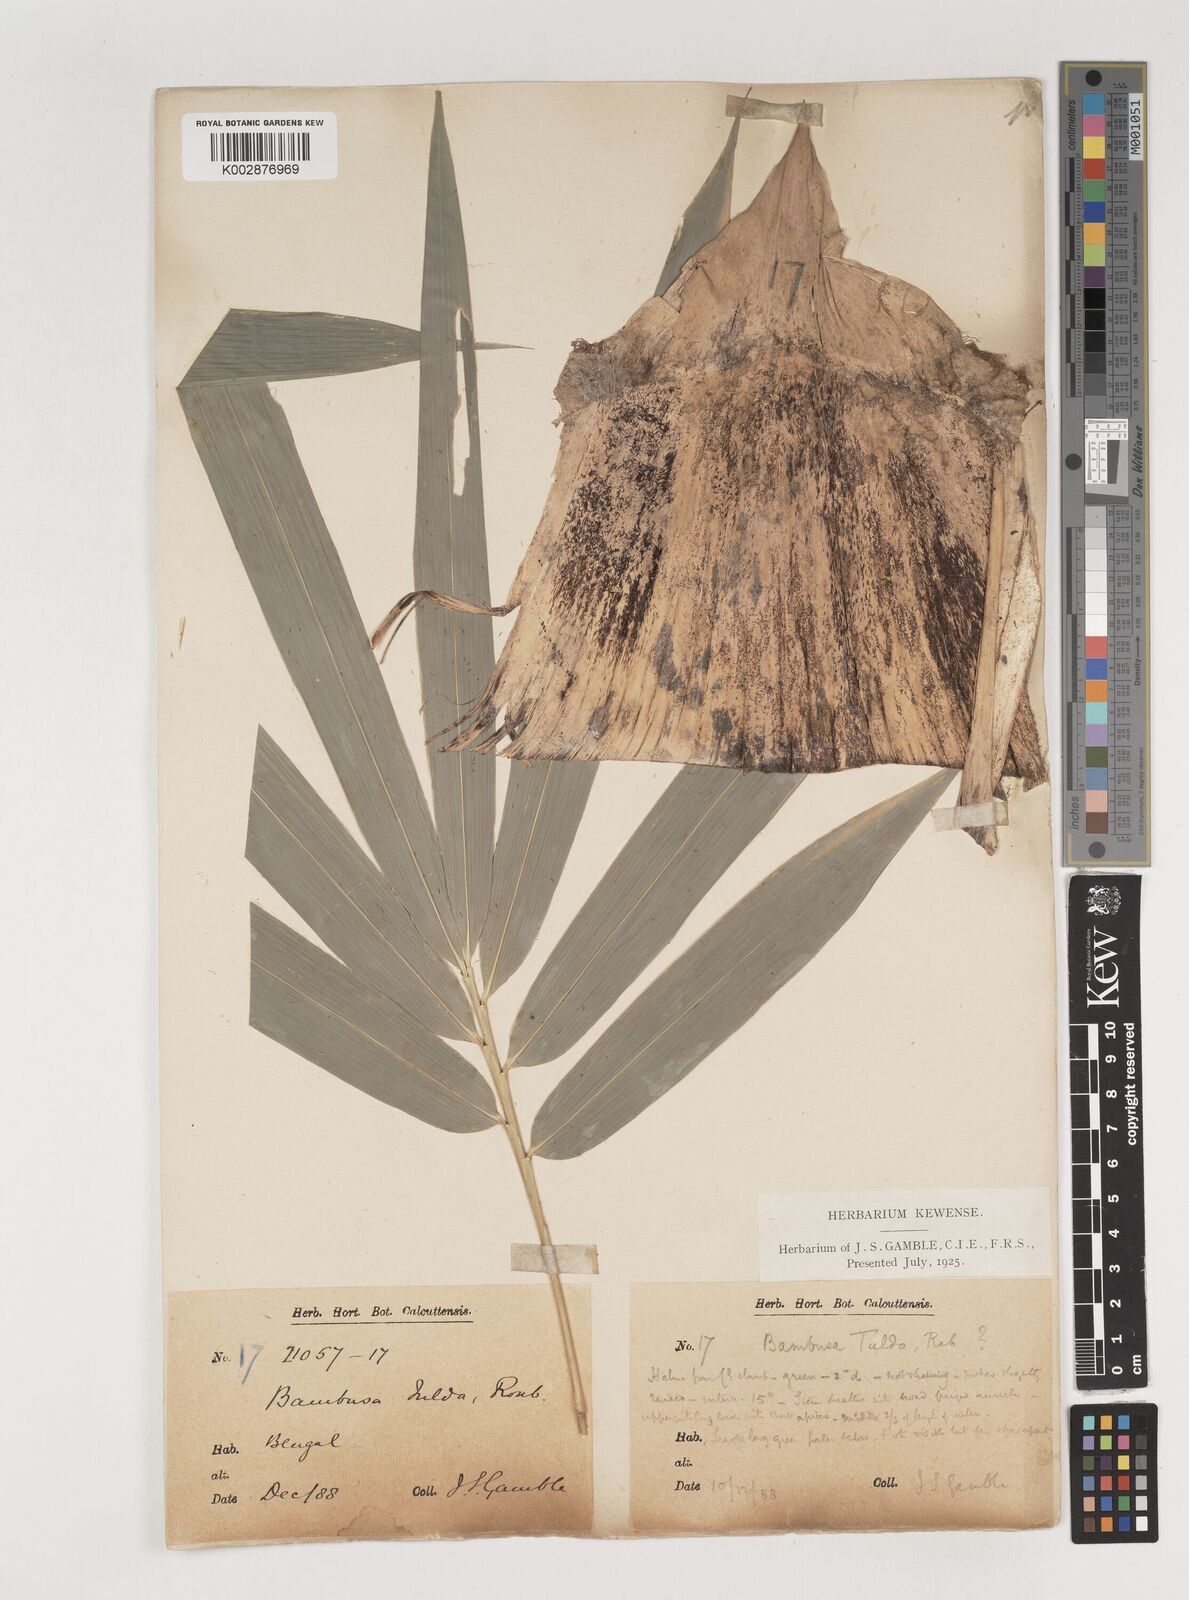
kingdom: Plantae
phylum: Tracheophyta
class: Liliopsida
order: Poales
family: Poaceae
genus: Bambusa
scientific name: Bambusa tulda
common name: Bengal bamboo
